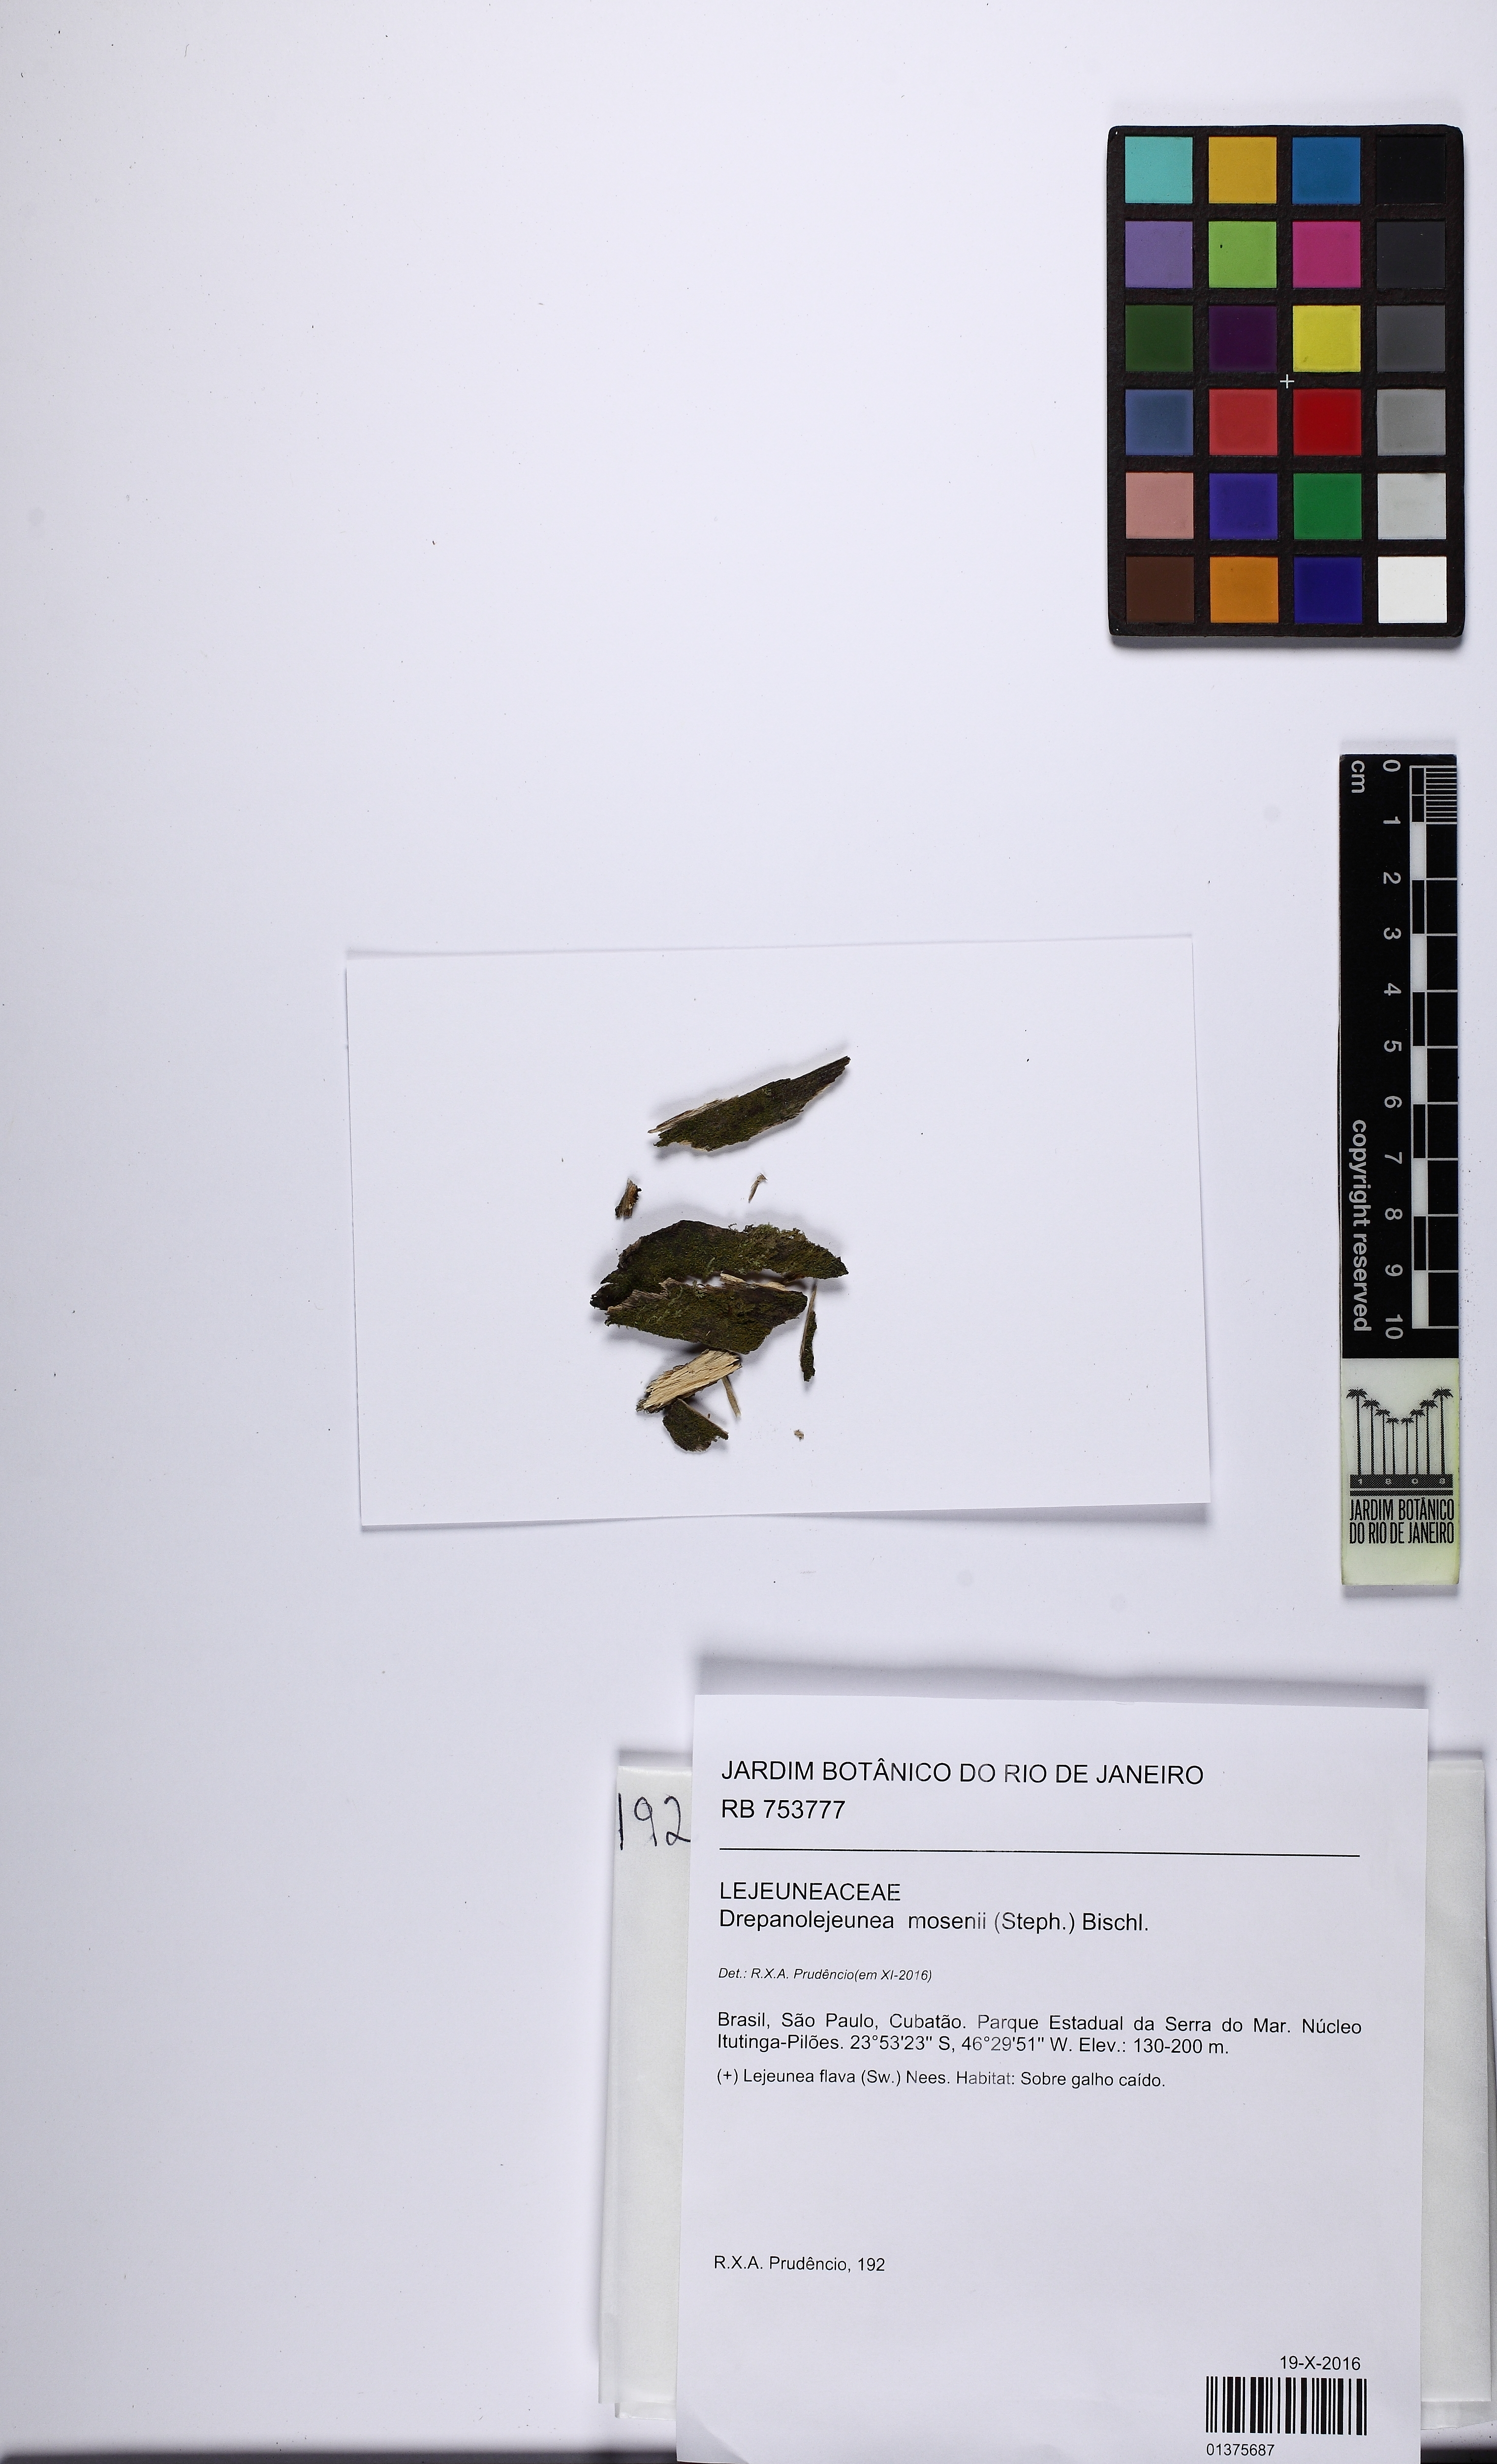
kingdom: Plantae
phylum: Marchantiophyta
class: Jungermanniopsida
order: Porellales
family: Lejeuneaceae
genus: Drepanolejeunea
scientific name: Drepanolejeunea mosenii
